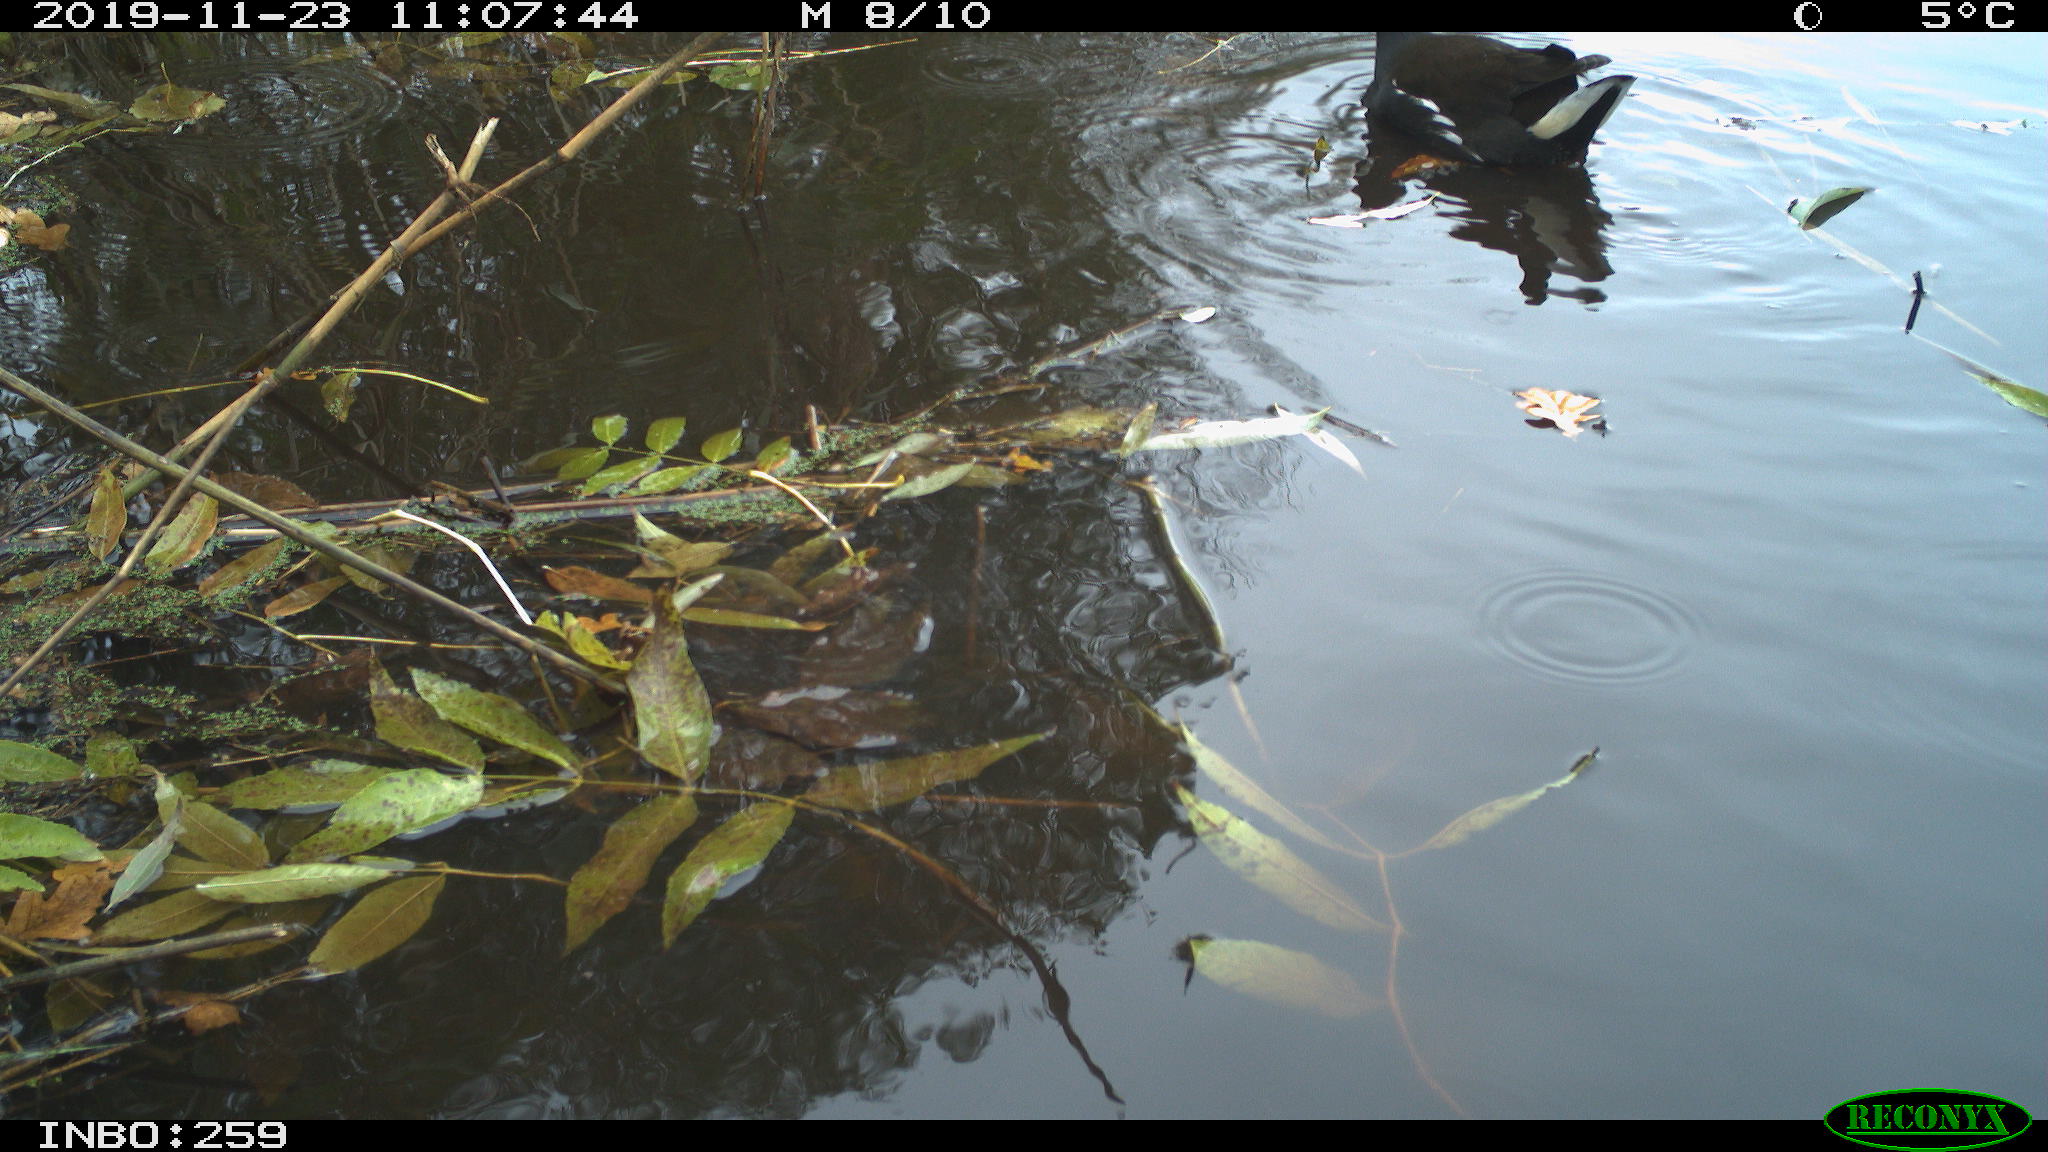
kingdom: Animalia
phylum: Chordata
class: Aves
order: Gruiformes
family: Rallidae
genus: Gallinula
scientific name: Gallinula chloropus
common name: Common moorhen
